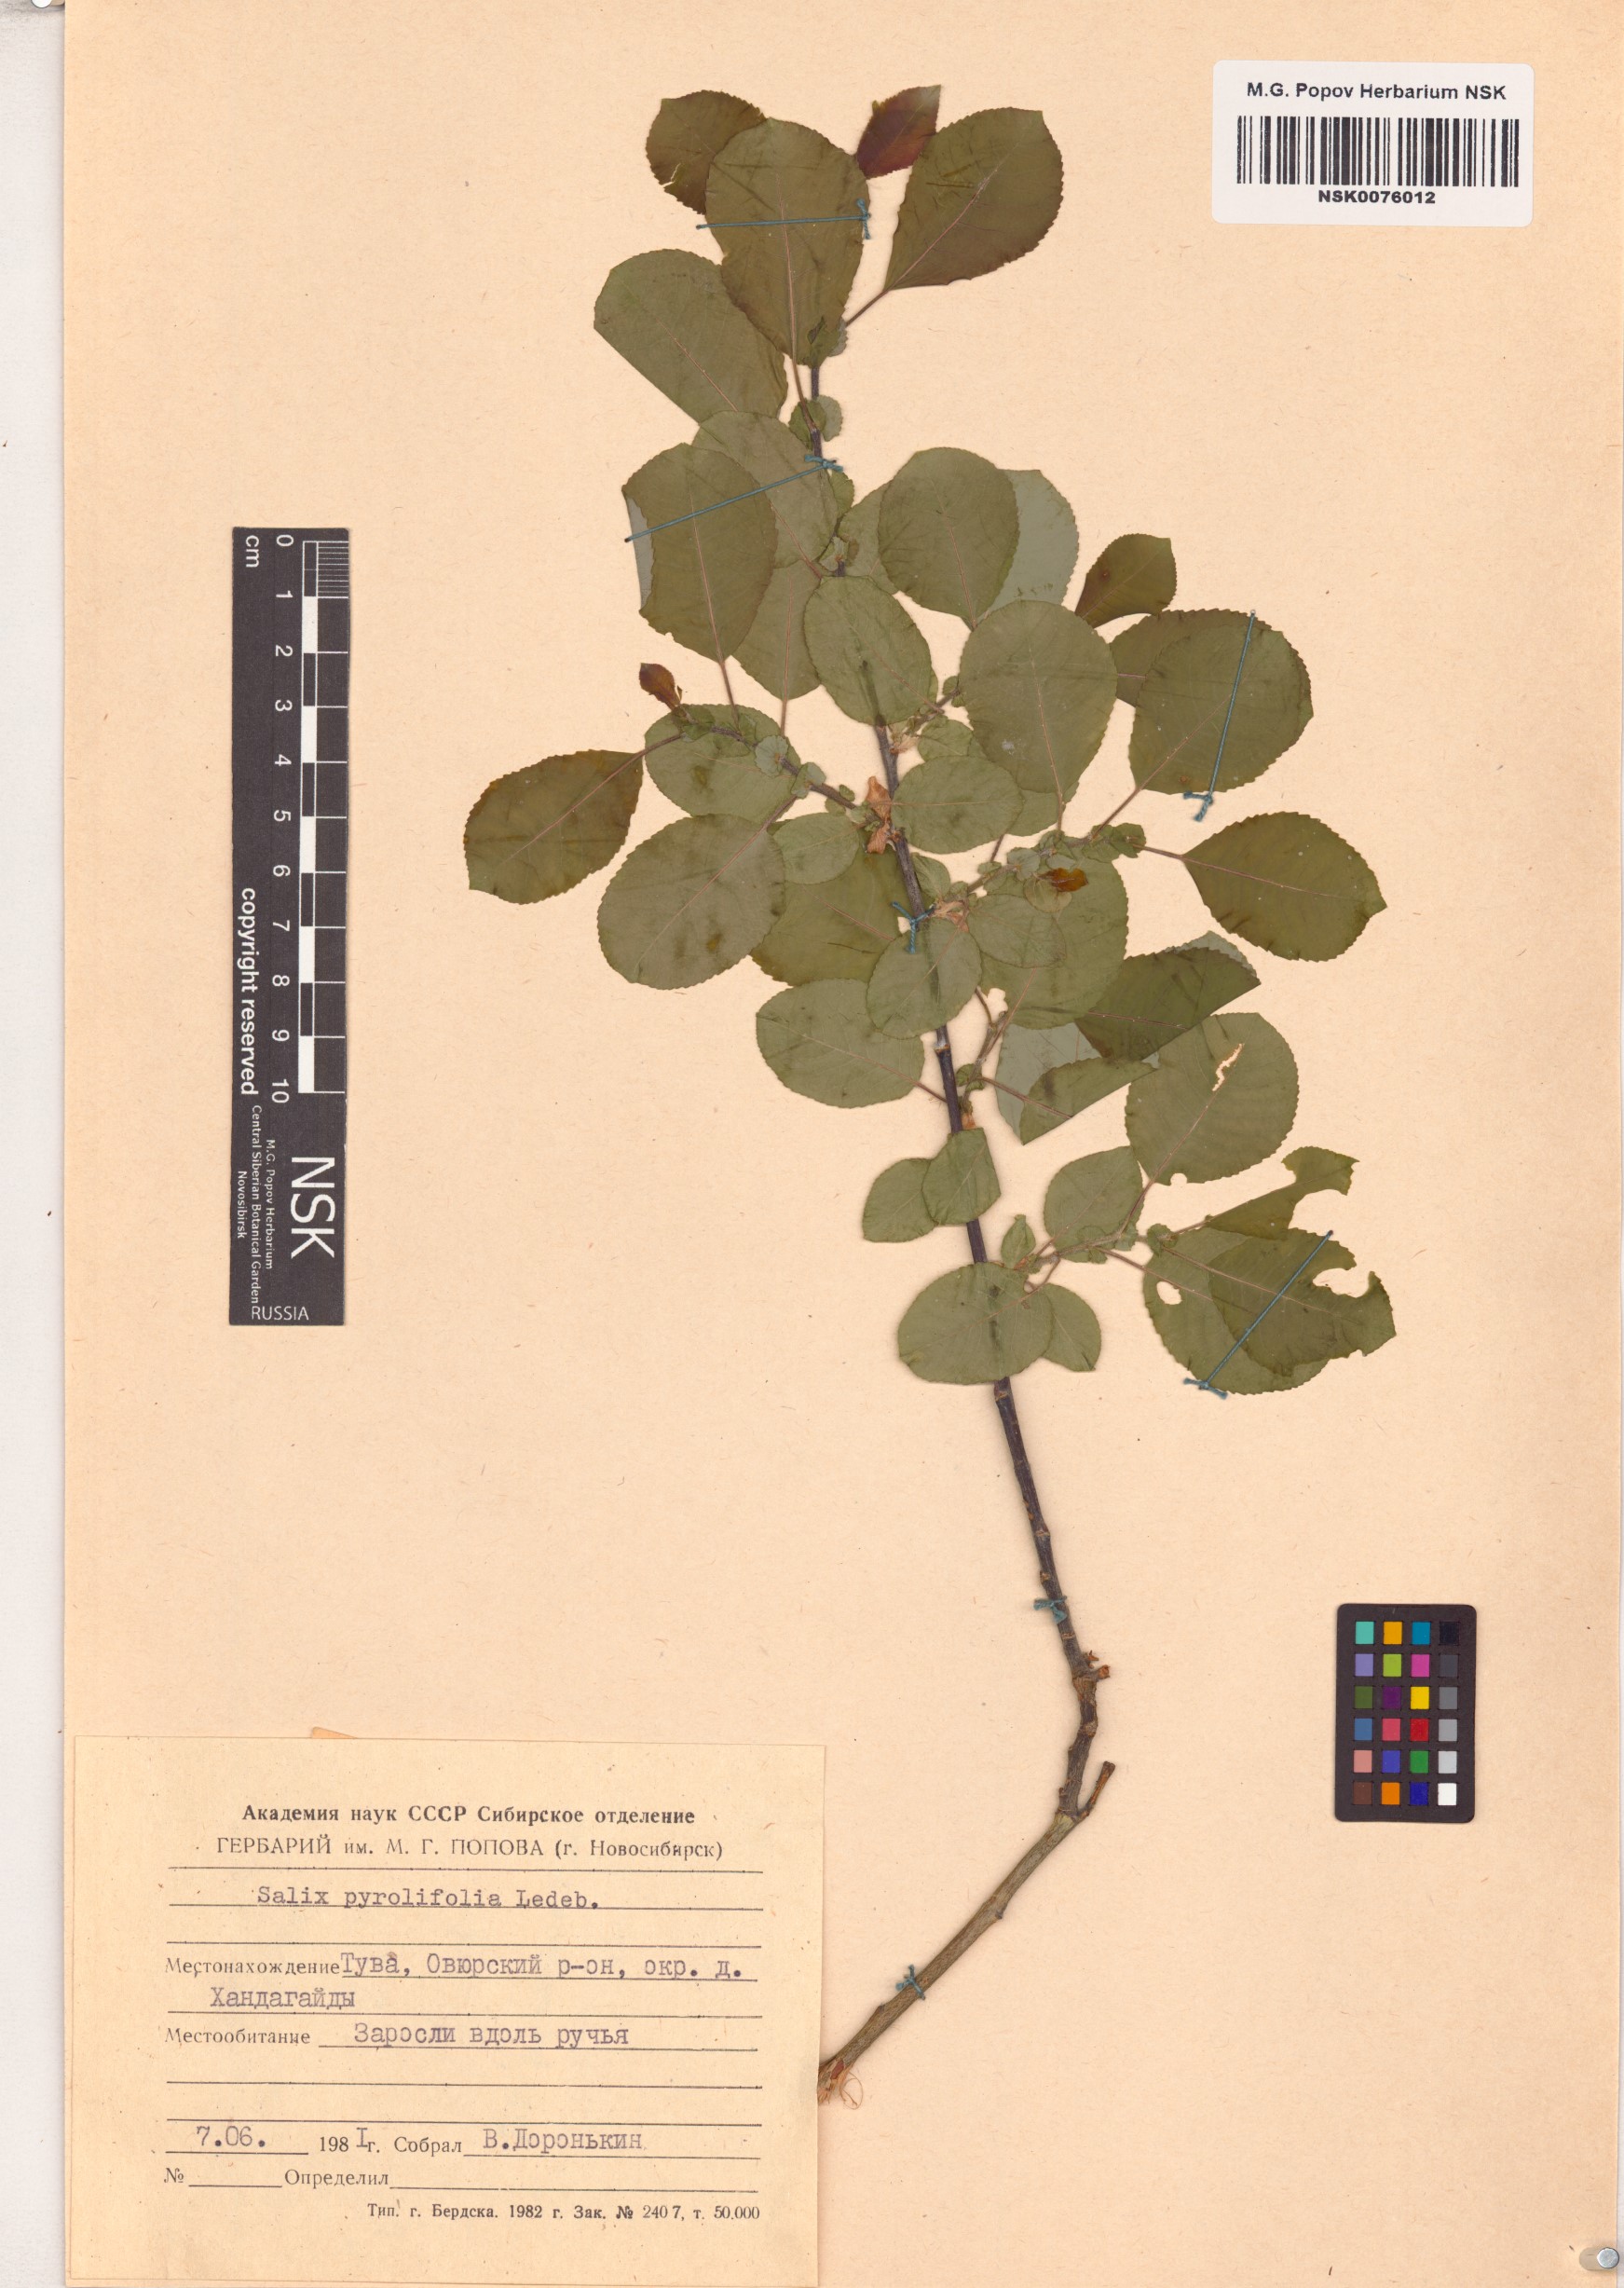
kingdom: Plantae
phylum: Tracheophyta
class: Magnoliopsida
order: Malpighiales
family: Salicaceae
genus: Salix
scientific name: Salix pyrolifolia
